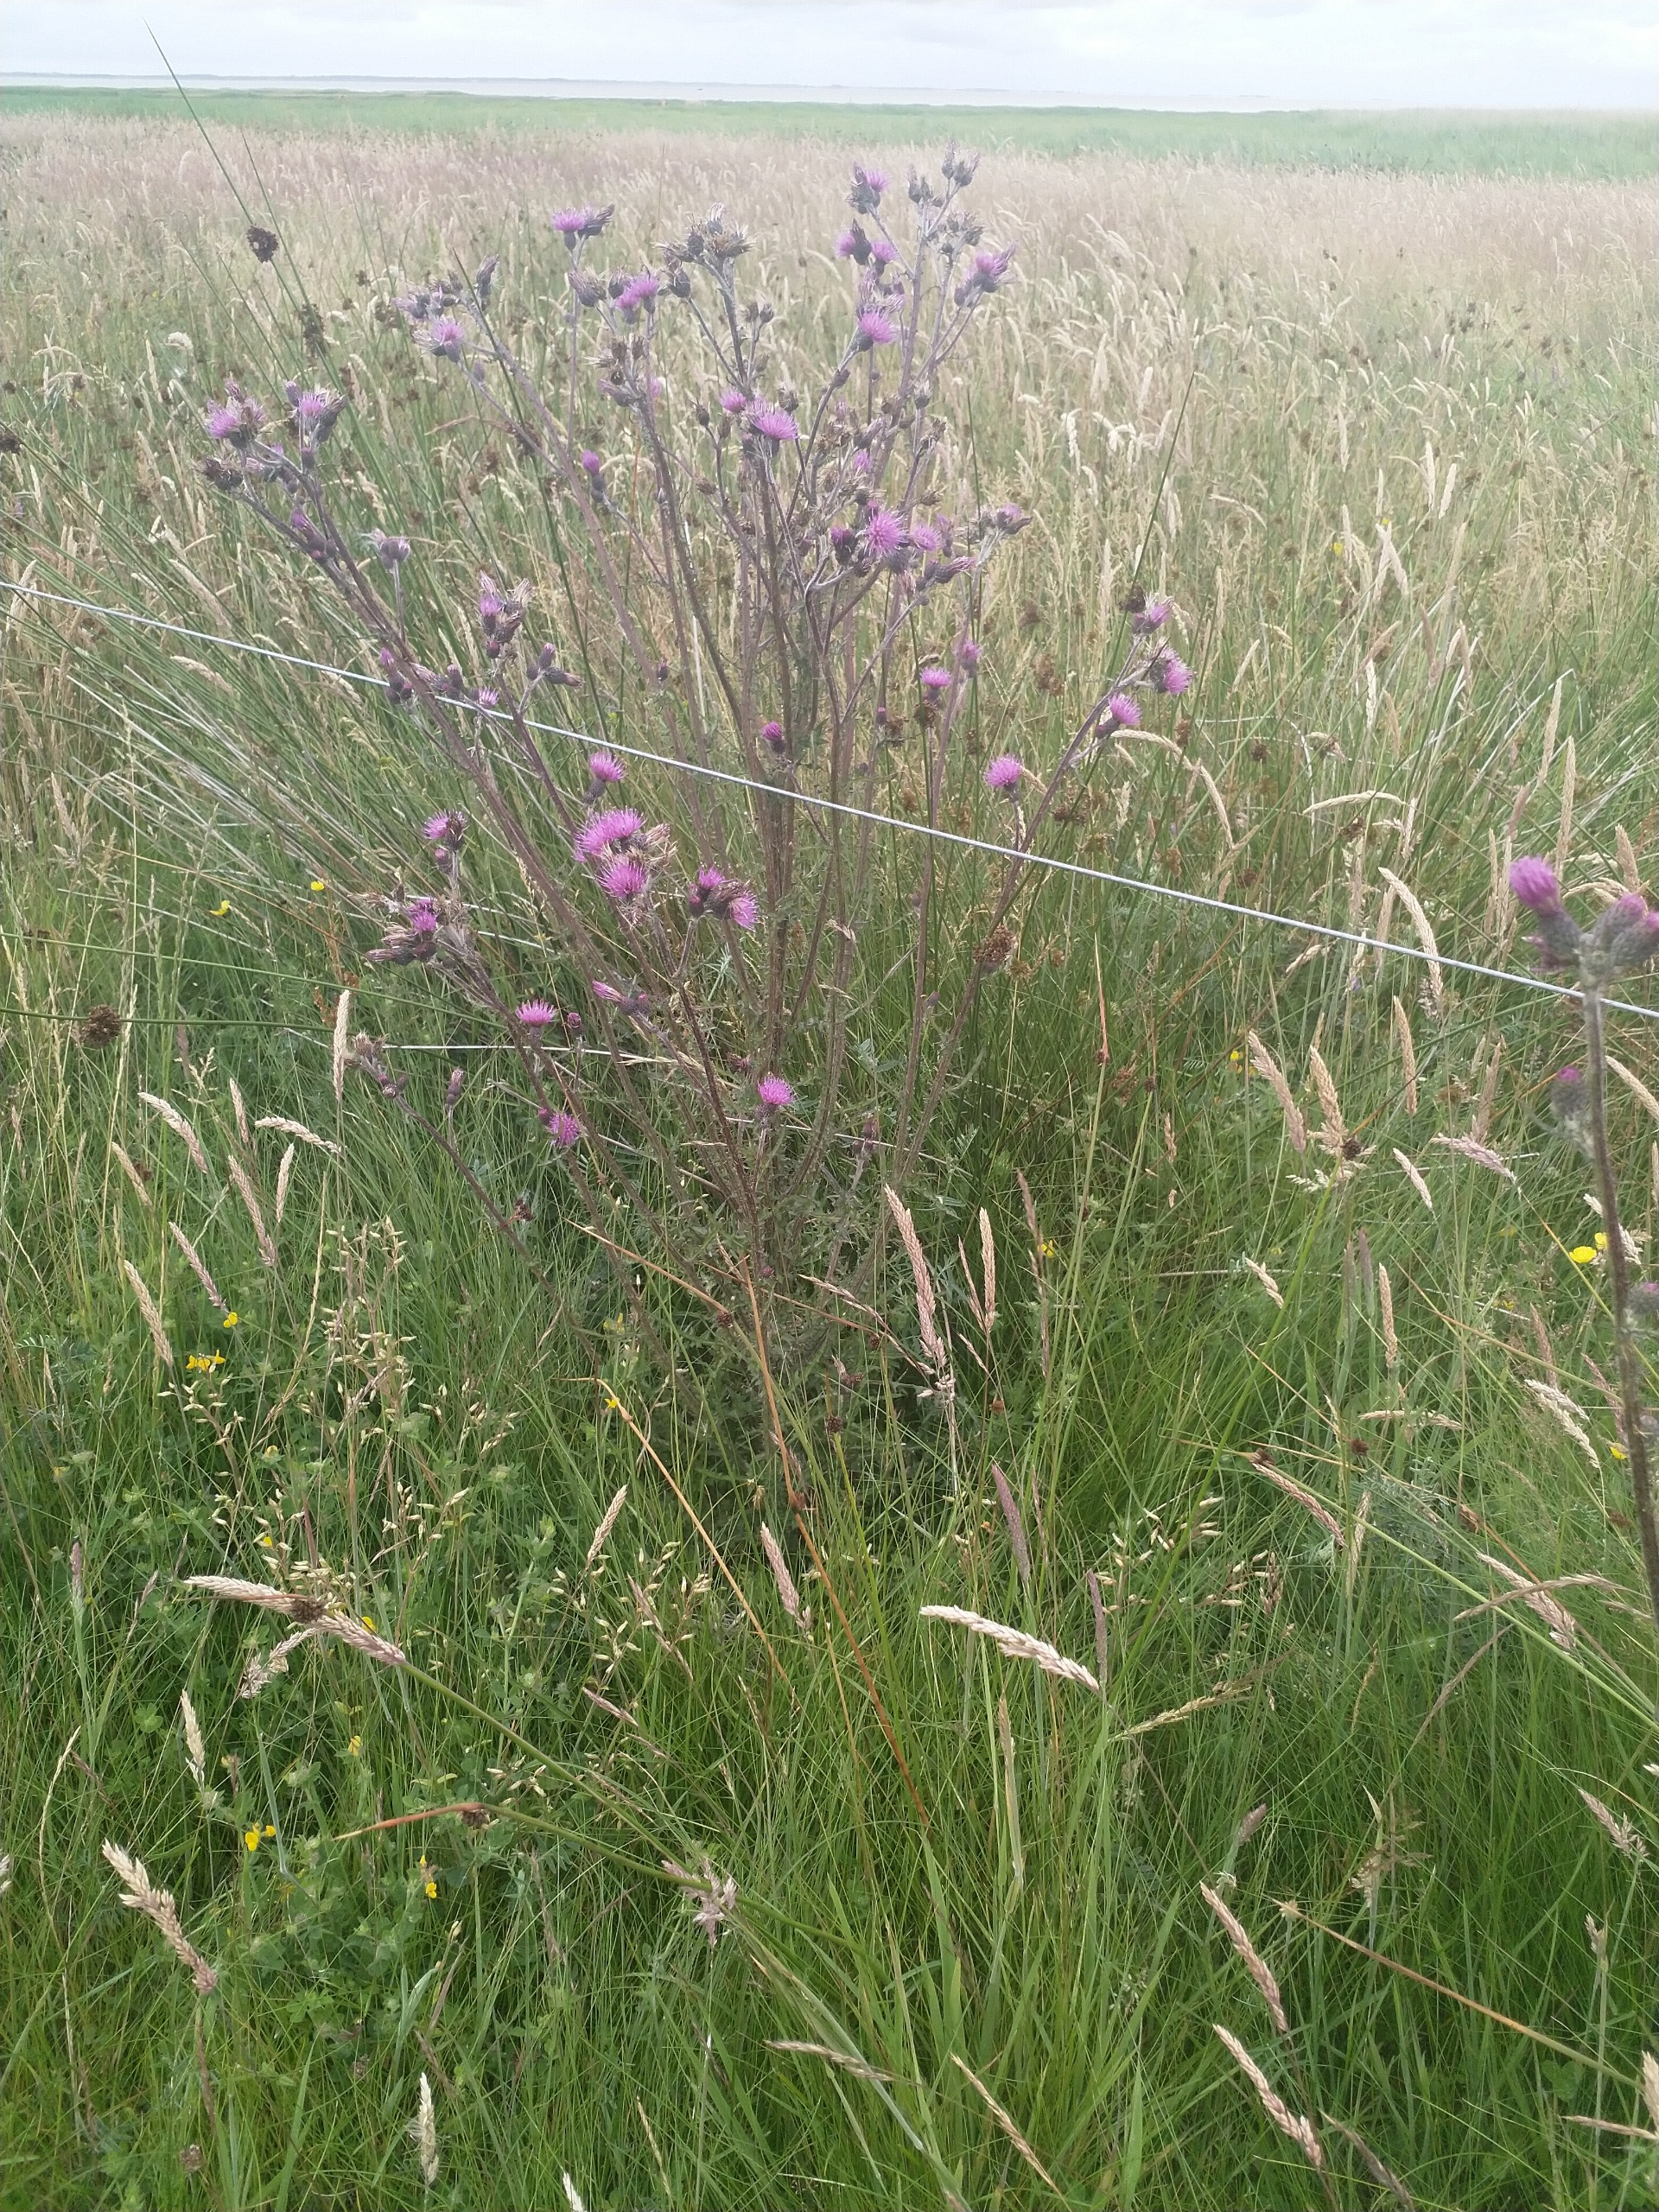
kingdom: Plantae
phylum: Tracheophyta
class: Magnoliopsida
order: Asterales
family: Asteraceae
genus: Cirsium
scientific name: Cirsium palustre
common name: Kær-tidsel
